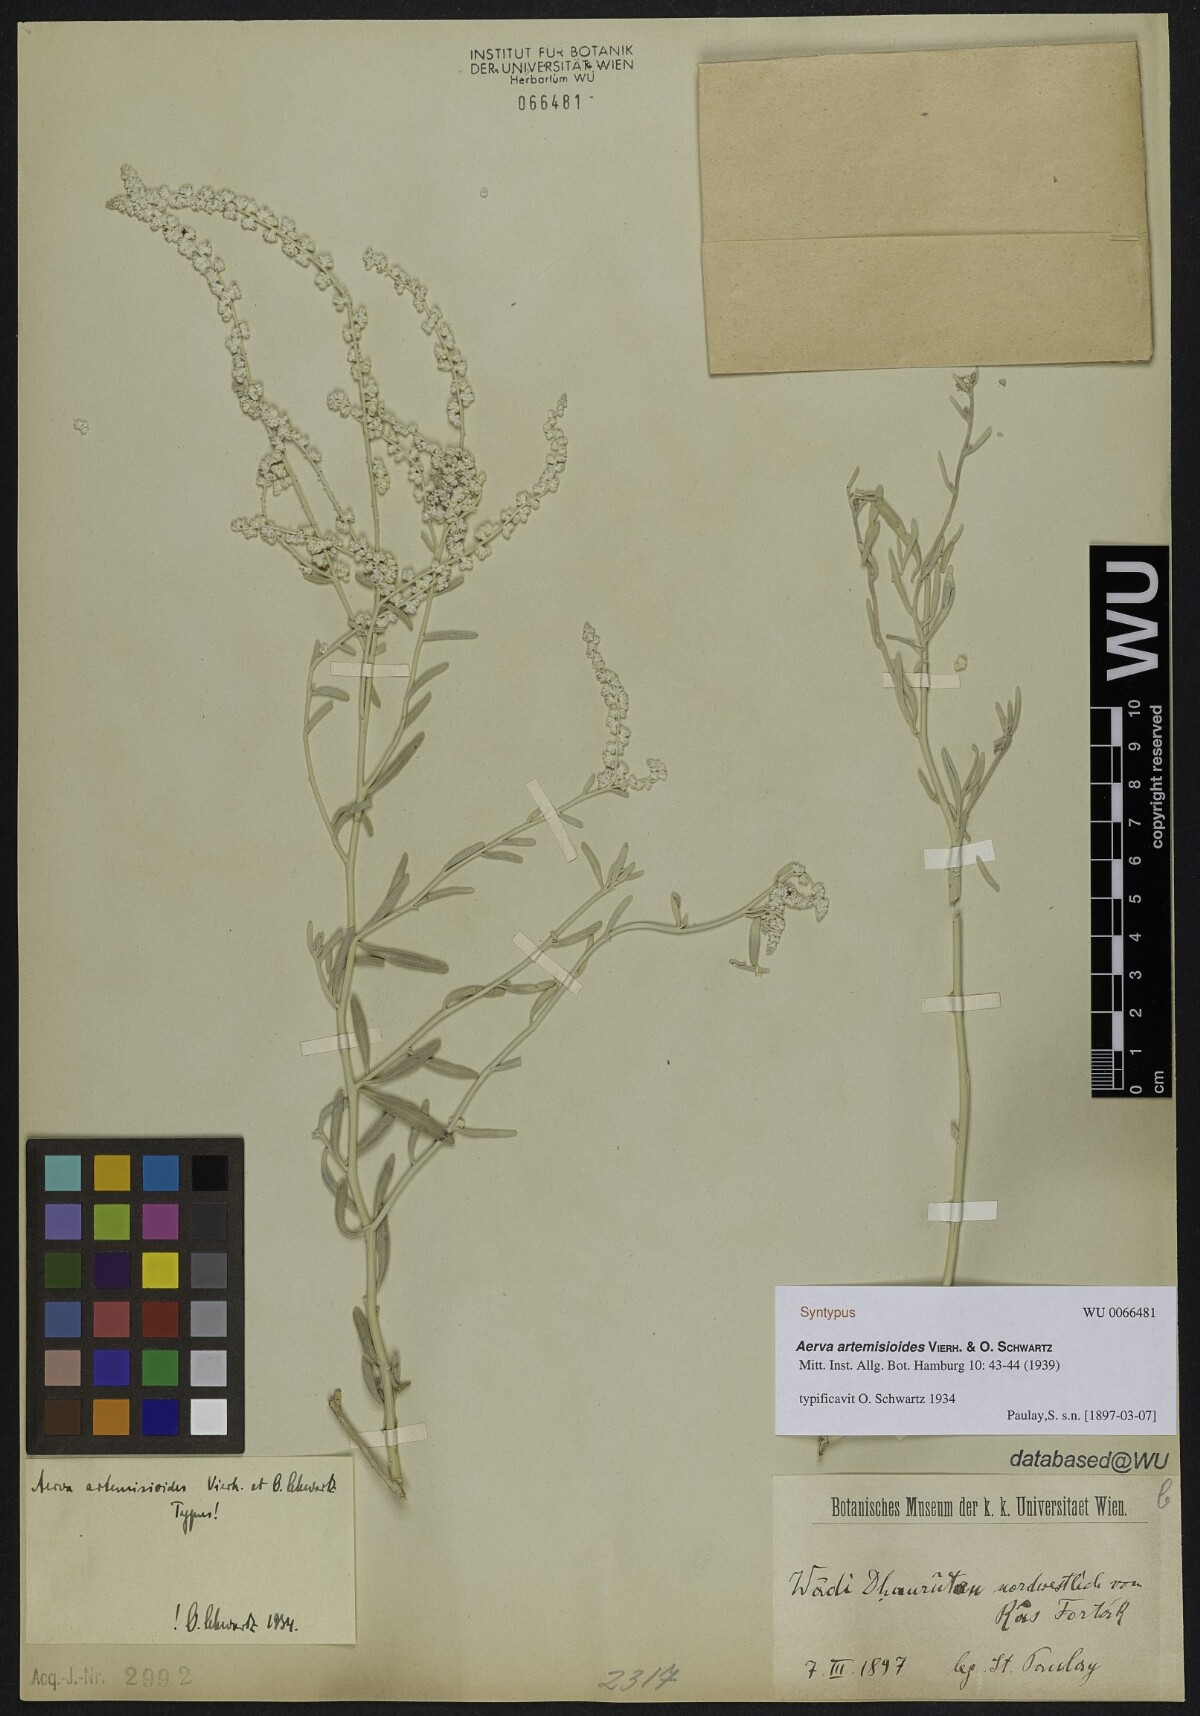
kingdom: Plantae
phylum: Tracheophyta
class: Magnoliopsida
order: Caryophyllales
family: Amaranthaceae
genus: Wadithamnus
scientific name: Wadithamnus artemisioides
